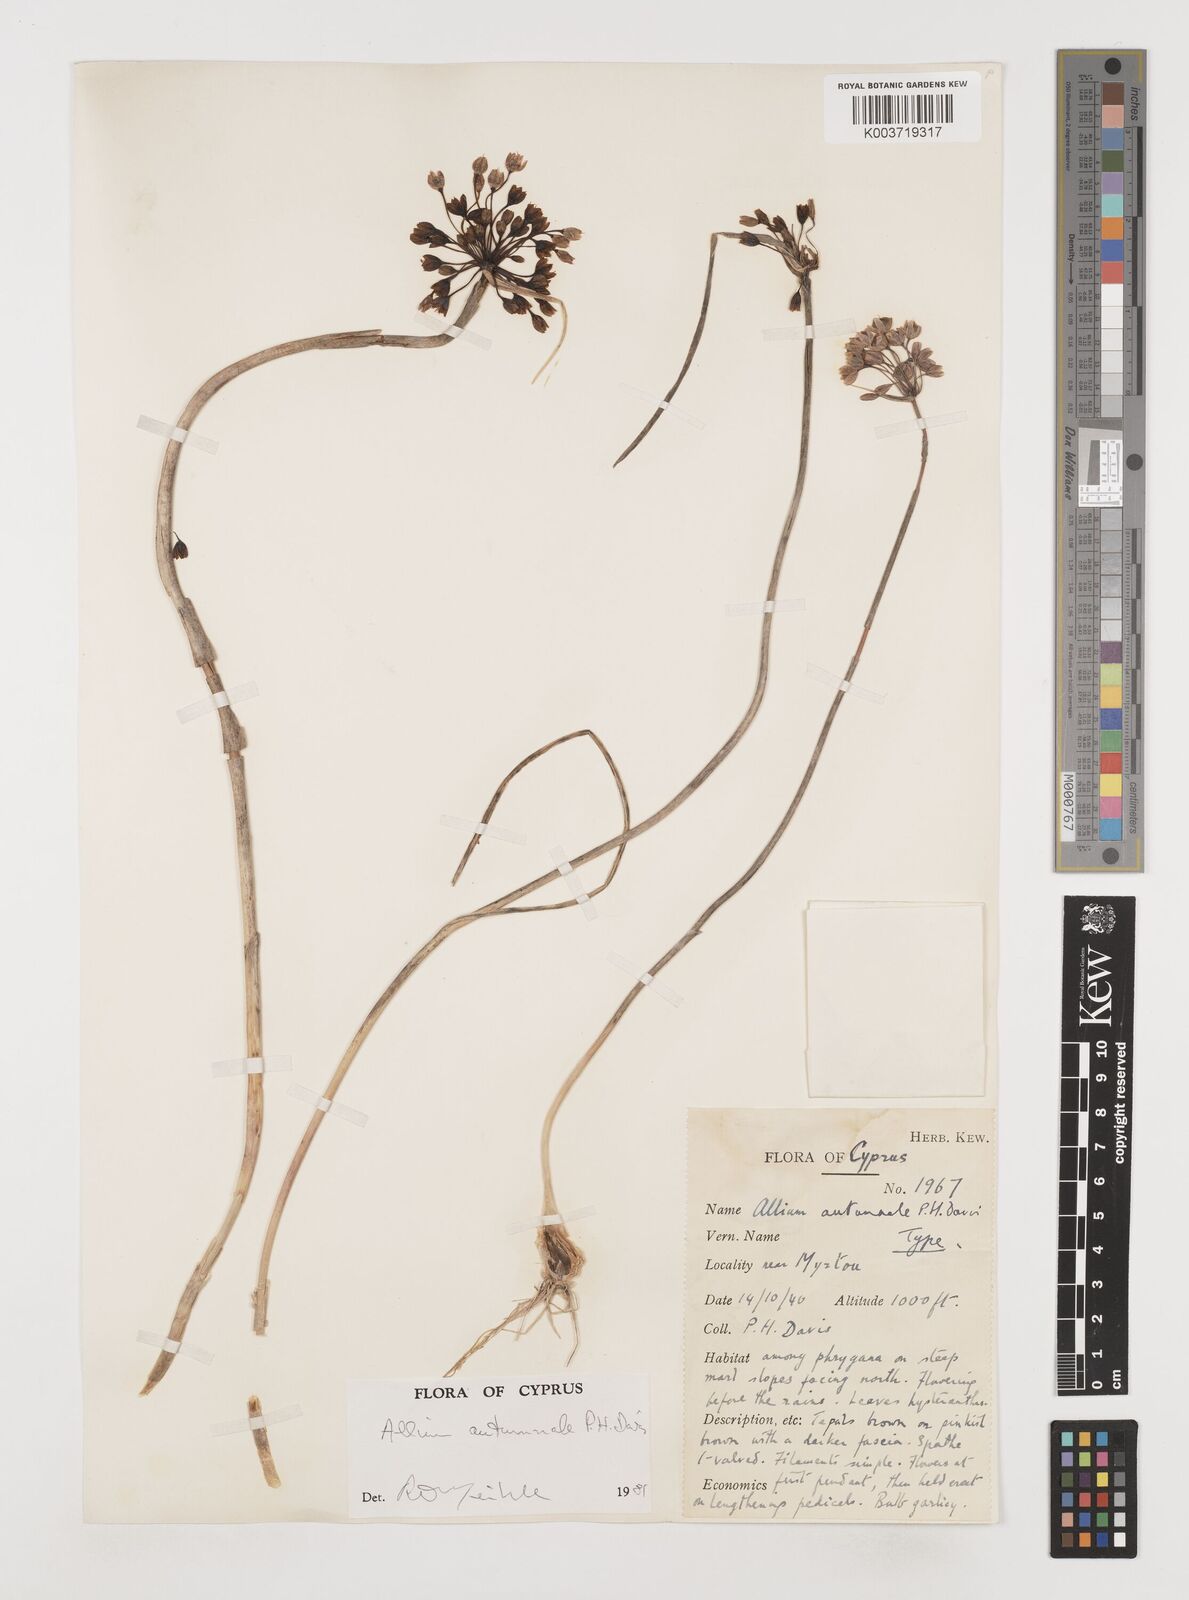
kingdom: Plantae
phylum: Tracheophyta
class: Liliopsida
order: Asparagales
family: Amaryllidaceae
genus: Allium
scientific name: Allium autumnale
